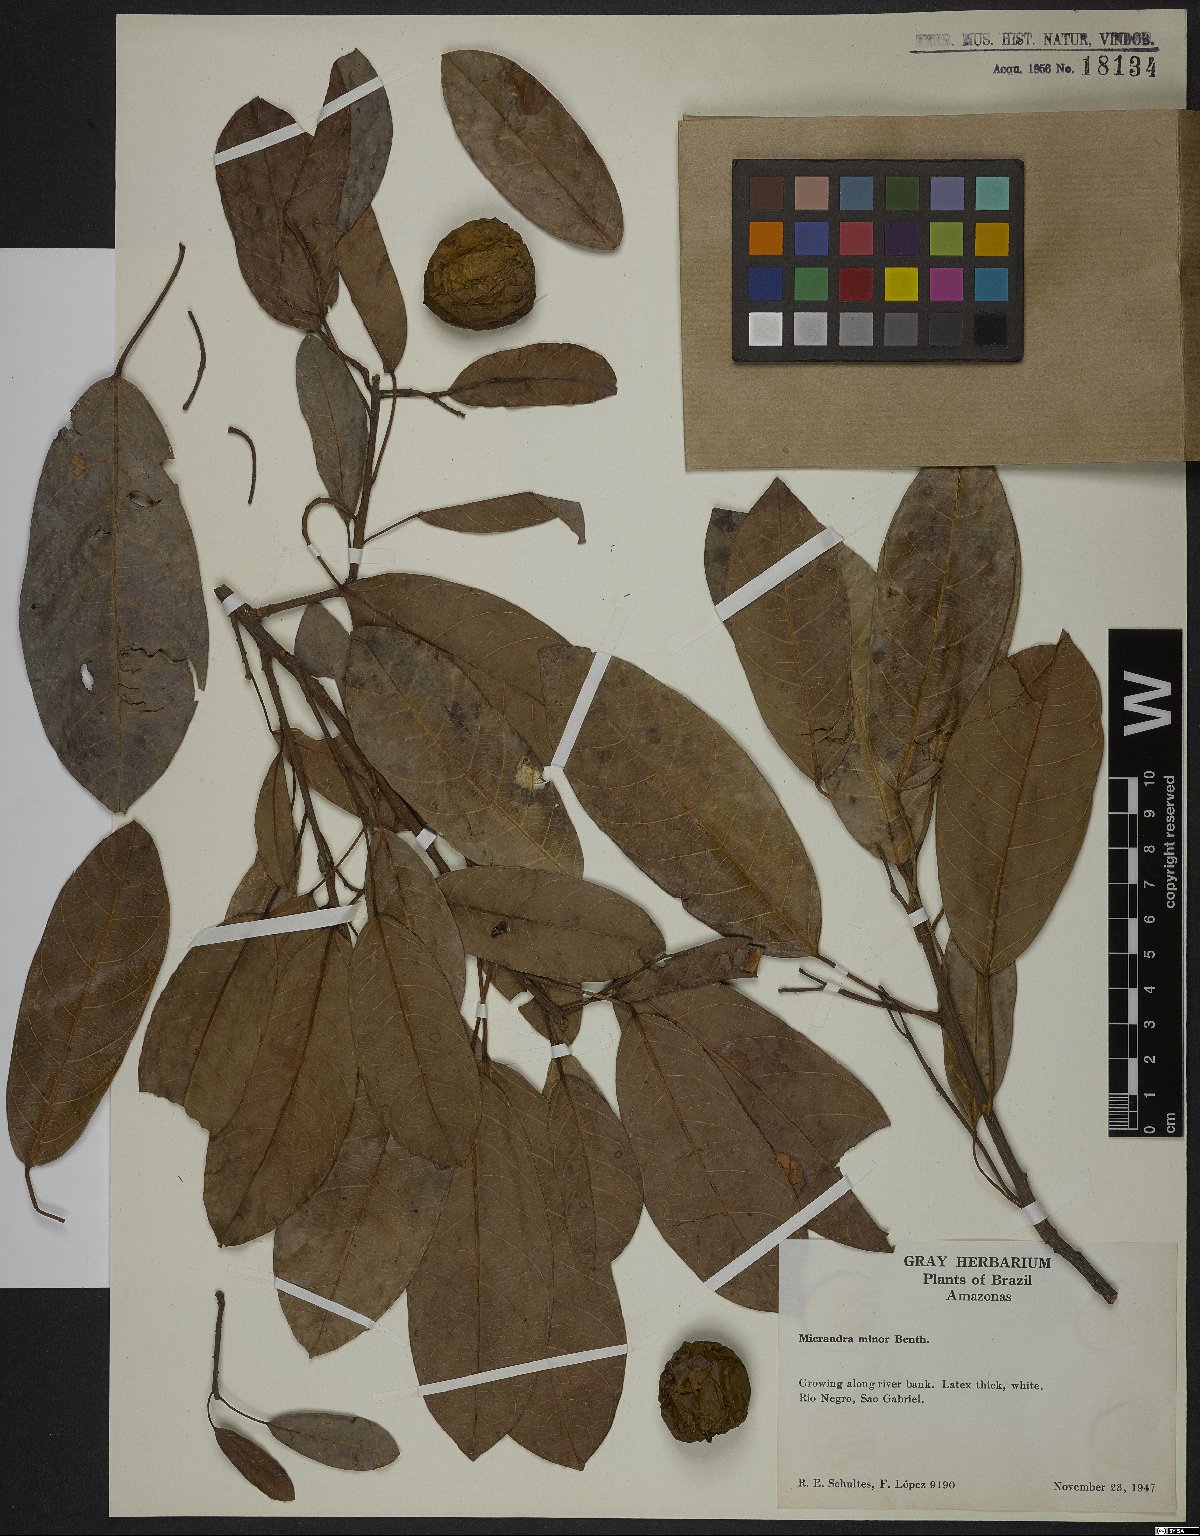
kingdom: Plantae
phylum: Tracheophyta
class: Magnoliopsida
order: Malpighiales
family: Euphorbiaceae
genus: Micrandra
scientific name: Micrandra minor
